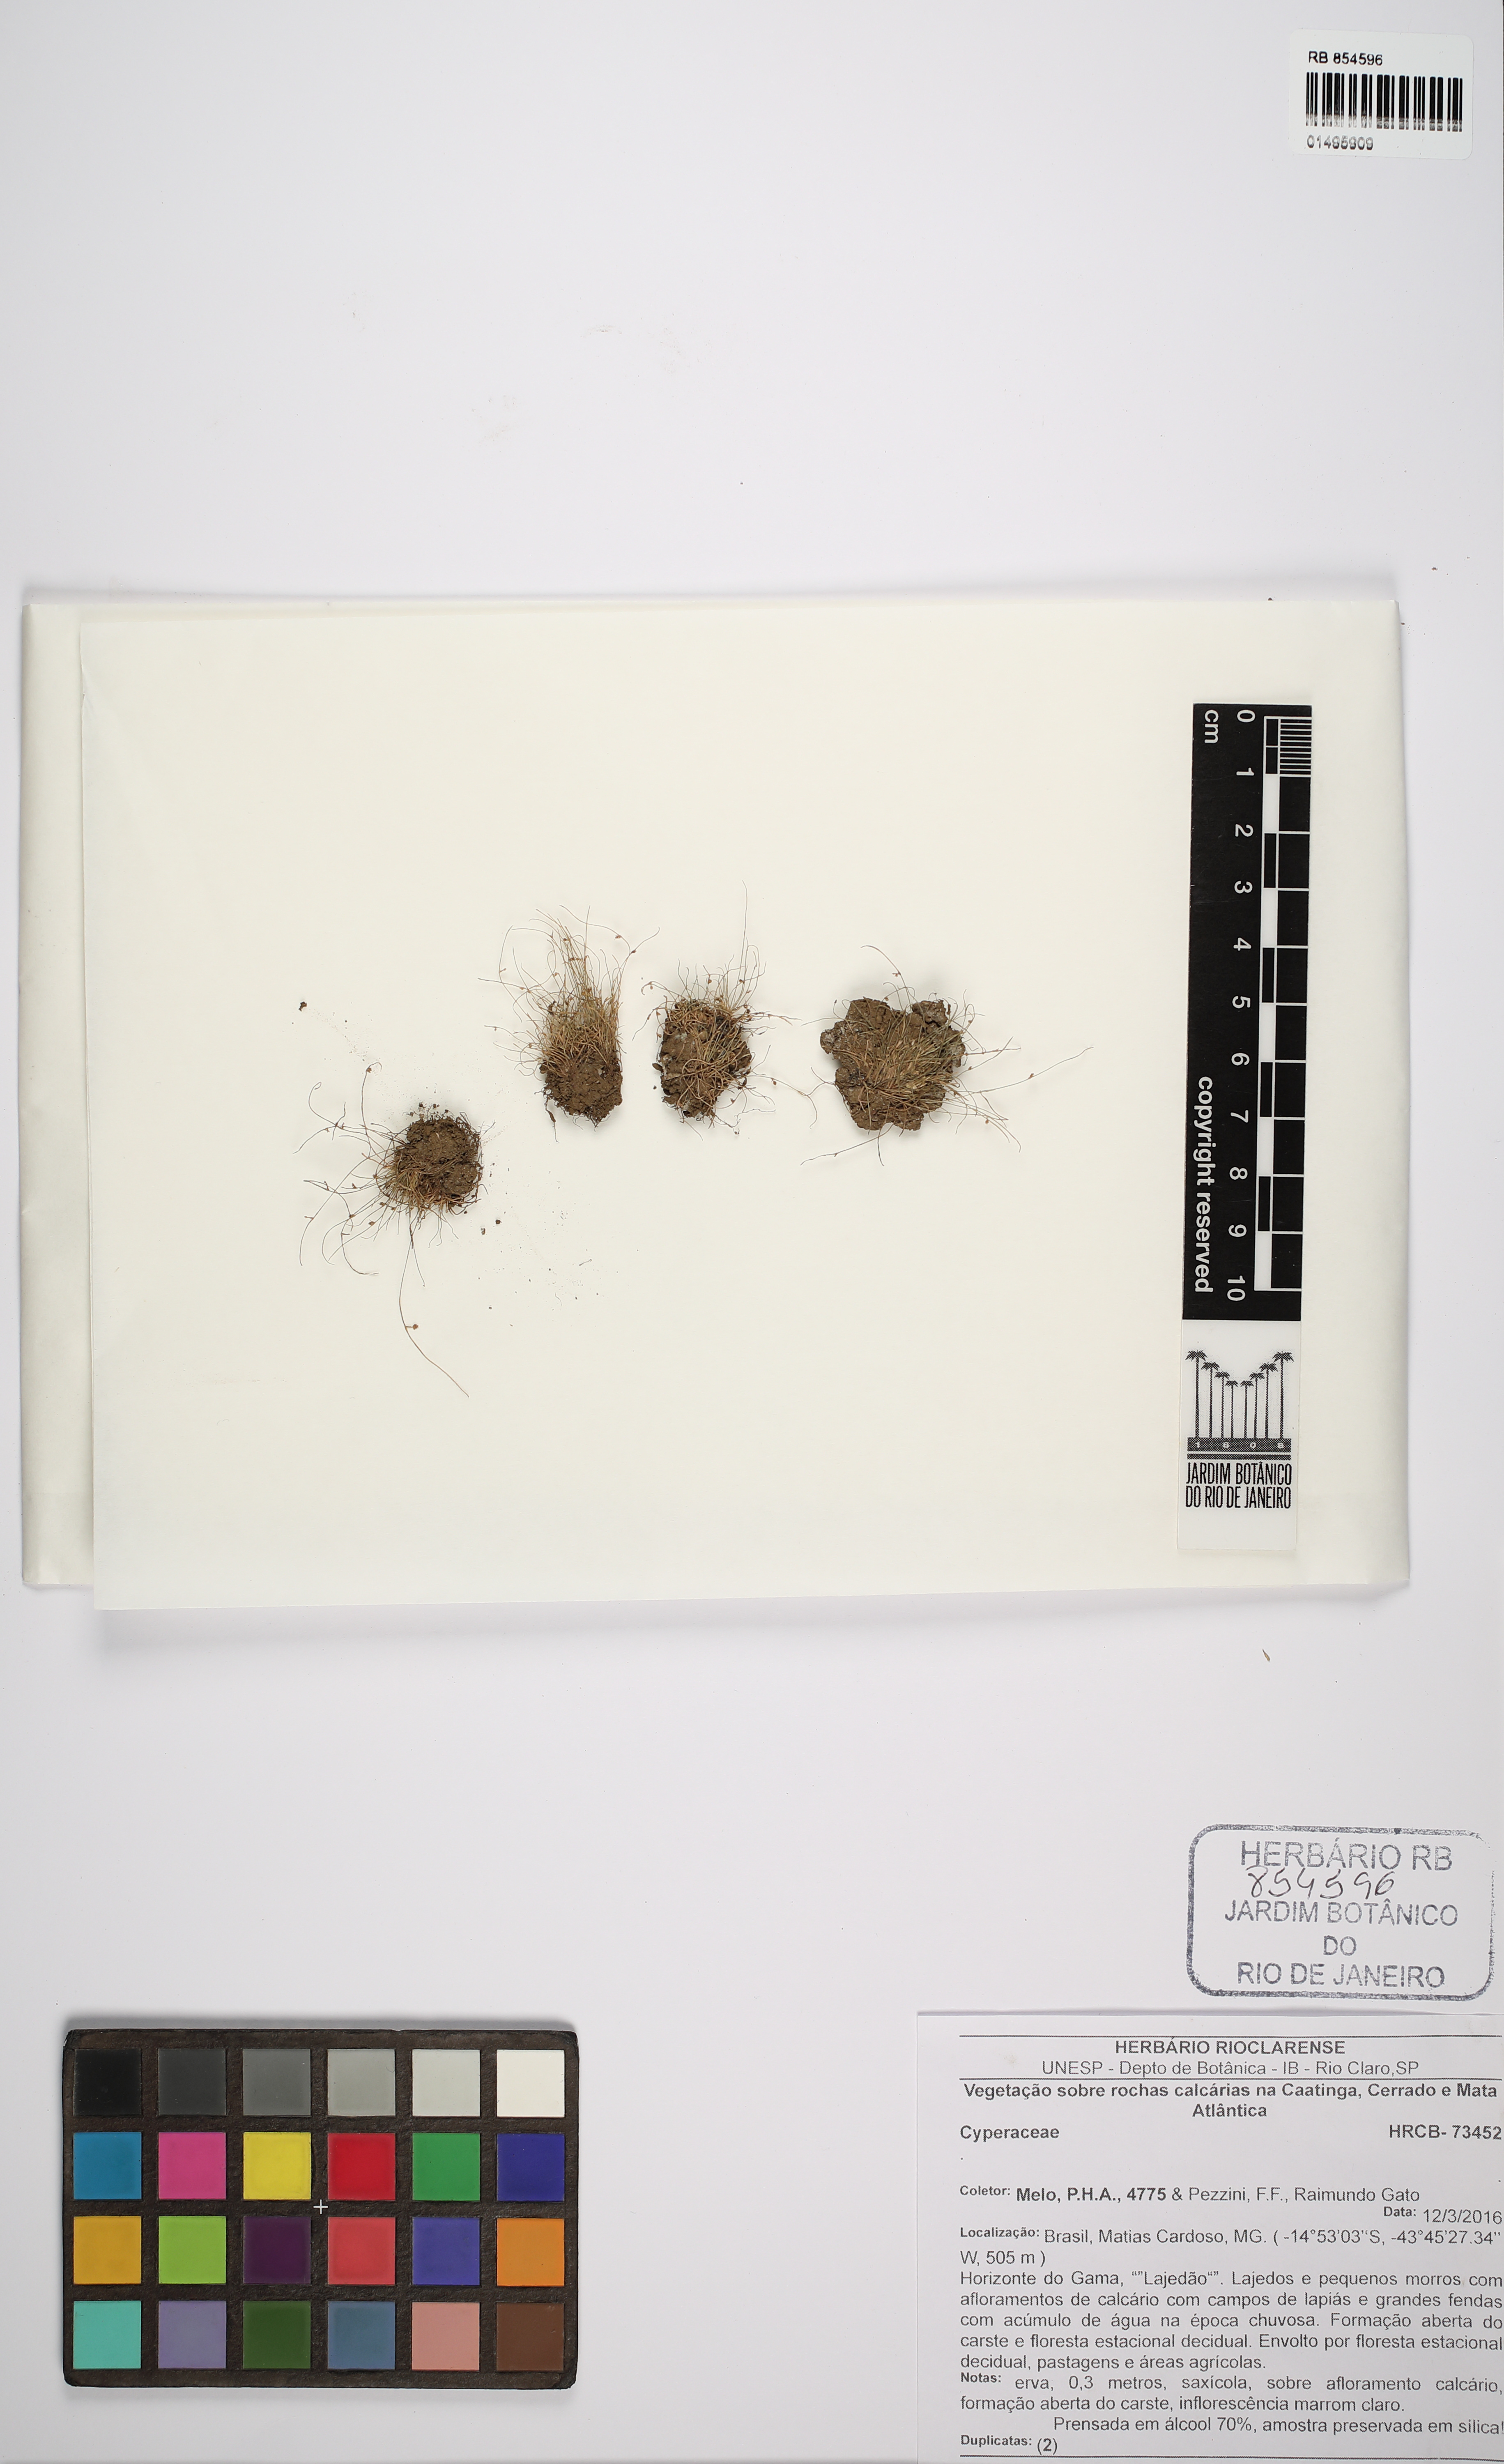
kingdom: Plantae
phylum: Tracheophyta
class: Liliopsida
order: Poales
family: Cyperaceae
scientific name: Cyperaceae
